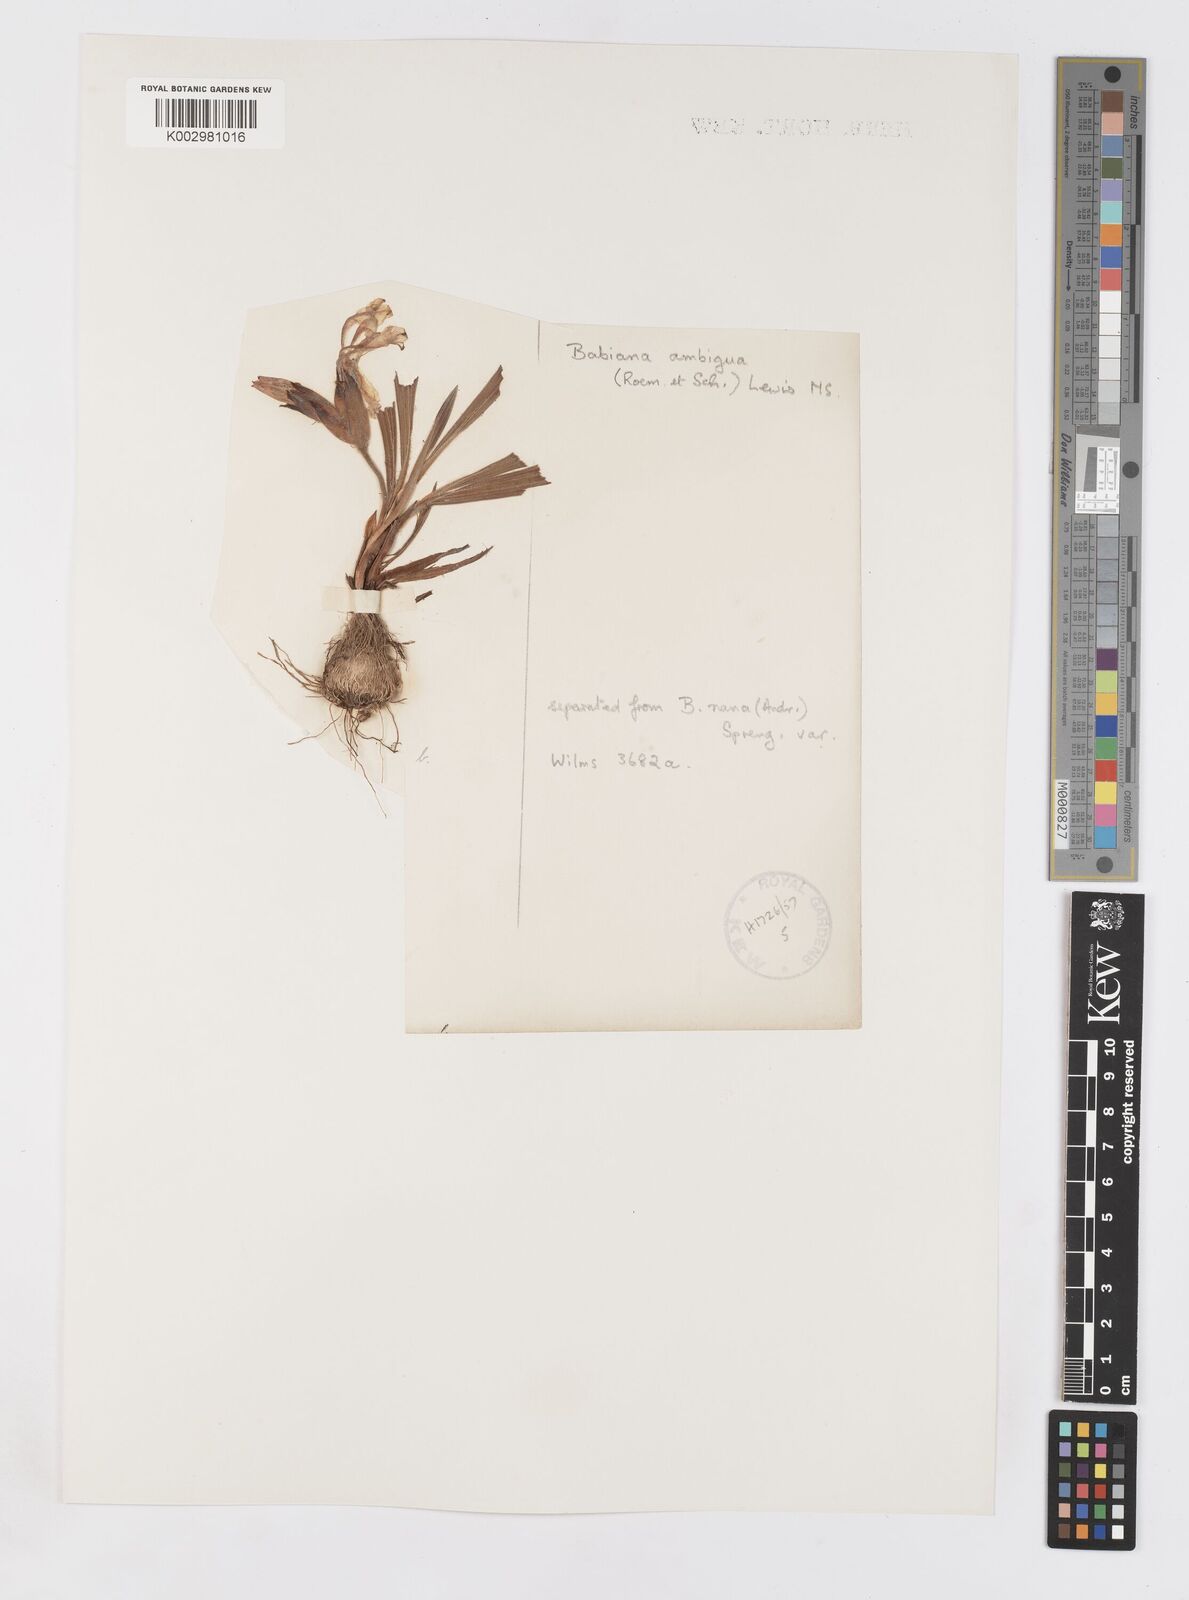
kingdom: Plantae
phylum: Tracheophyta
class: Liliopsida
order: Asparagales
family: Iridaceae
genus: Babiana
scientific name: Babiana ambigua
